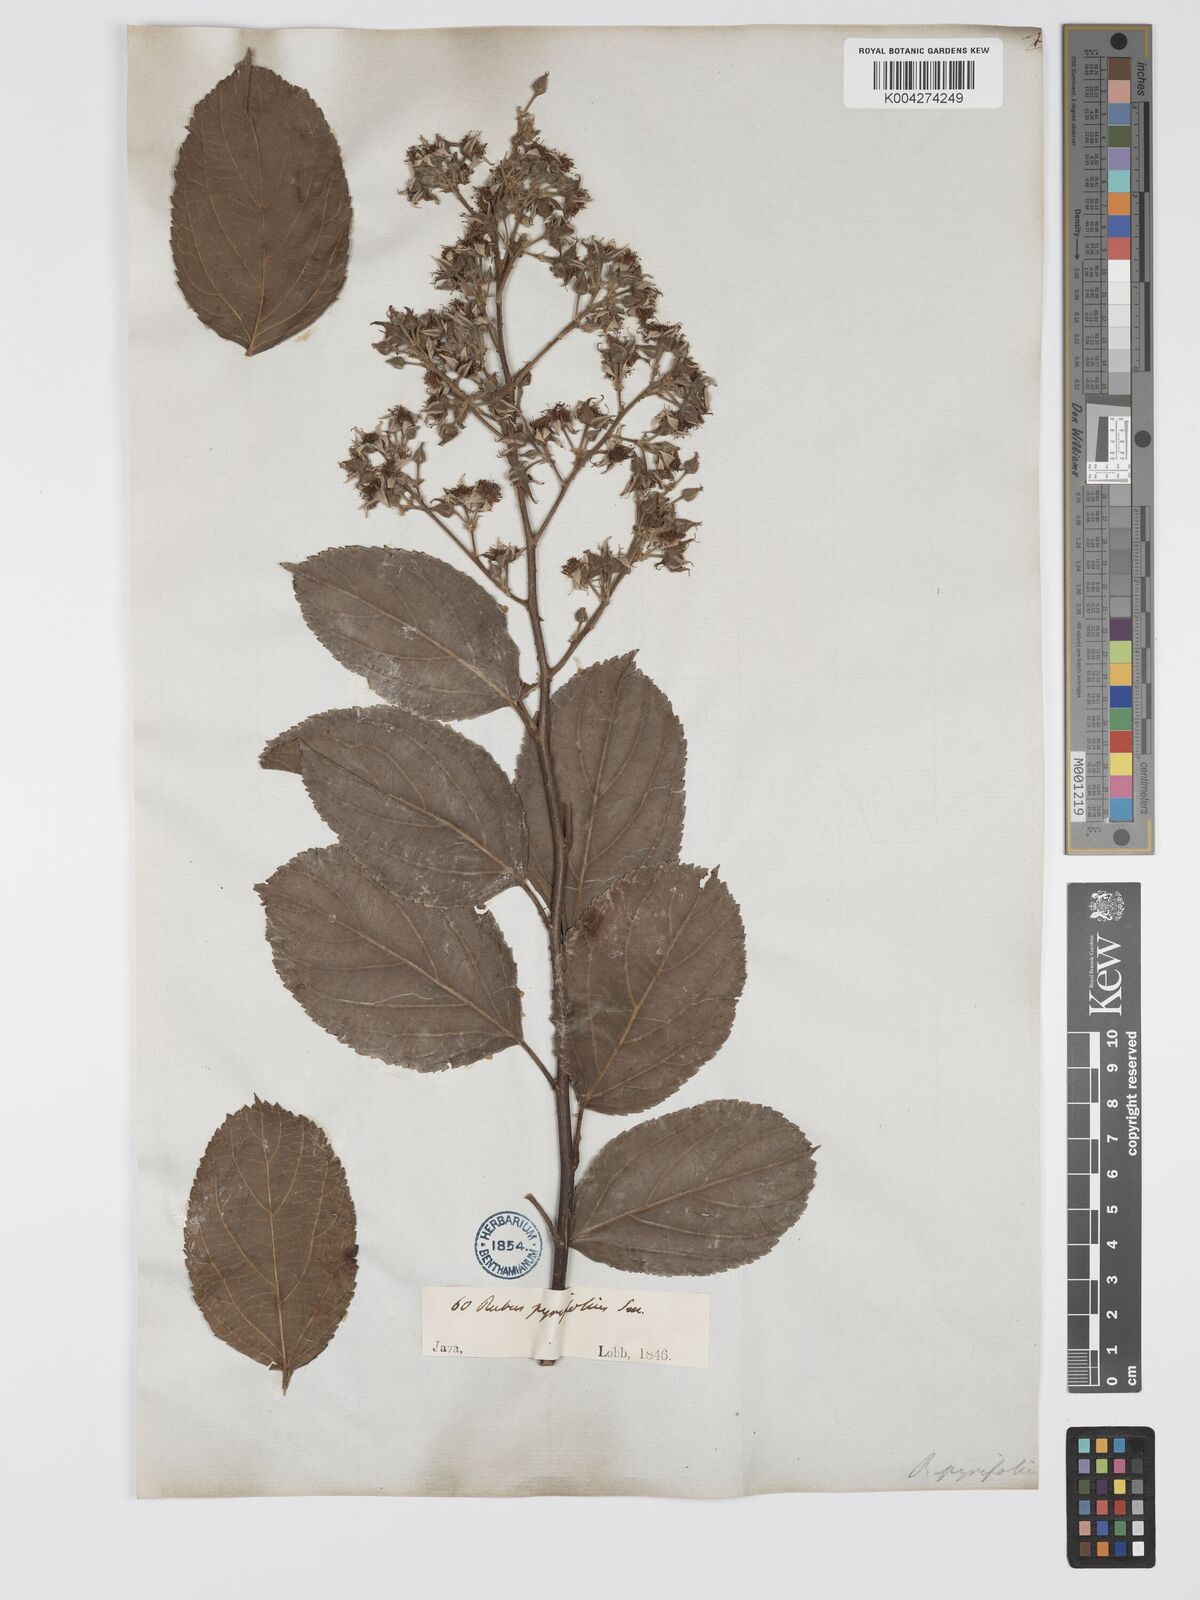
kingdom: Plantae
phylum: Tracheophyta
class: Magnoliopsida
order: Rosales
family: Rosaceae
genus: Rubus
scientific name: Rubus pirifolius
